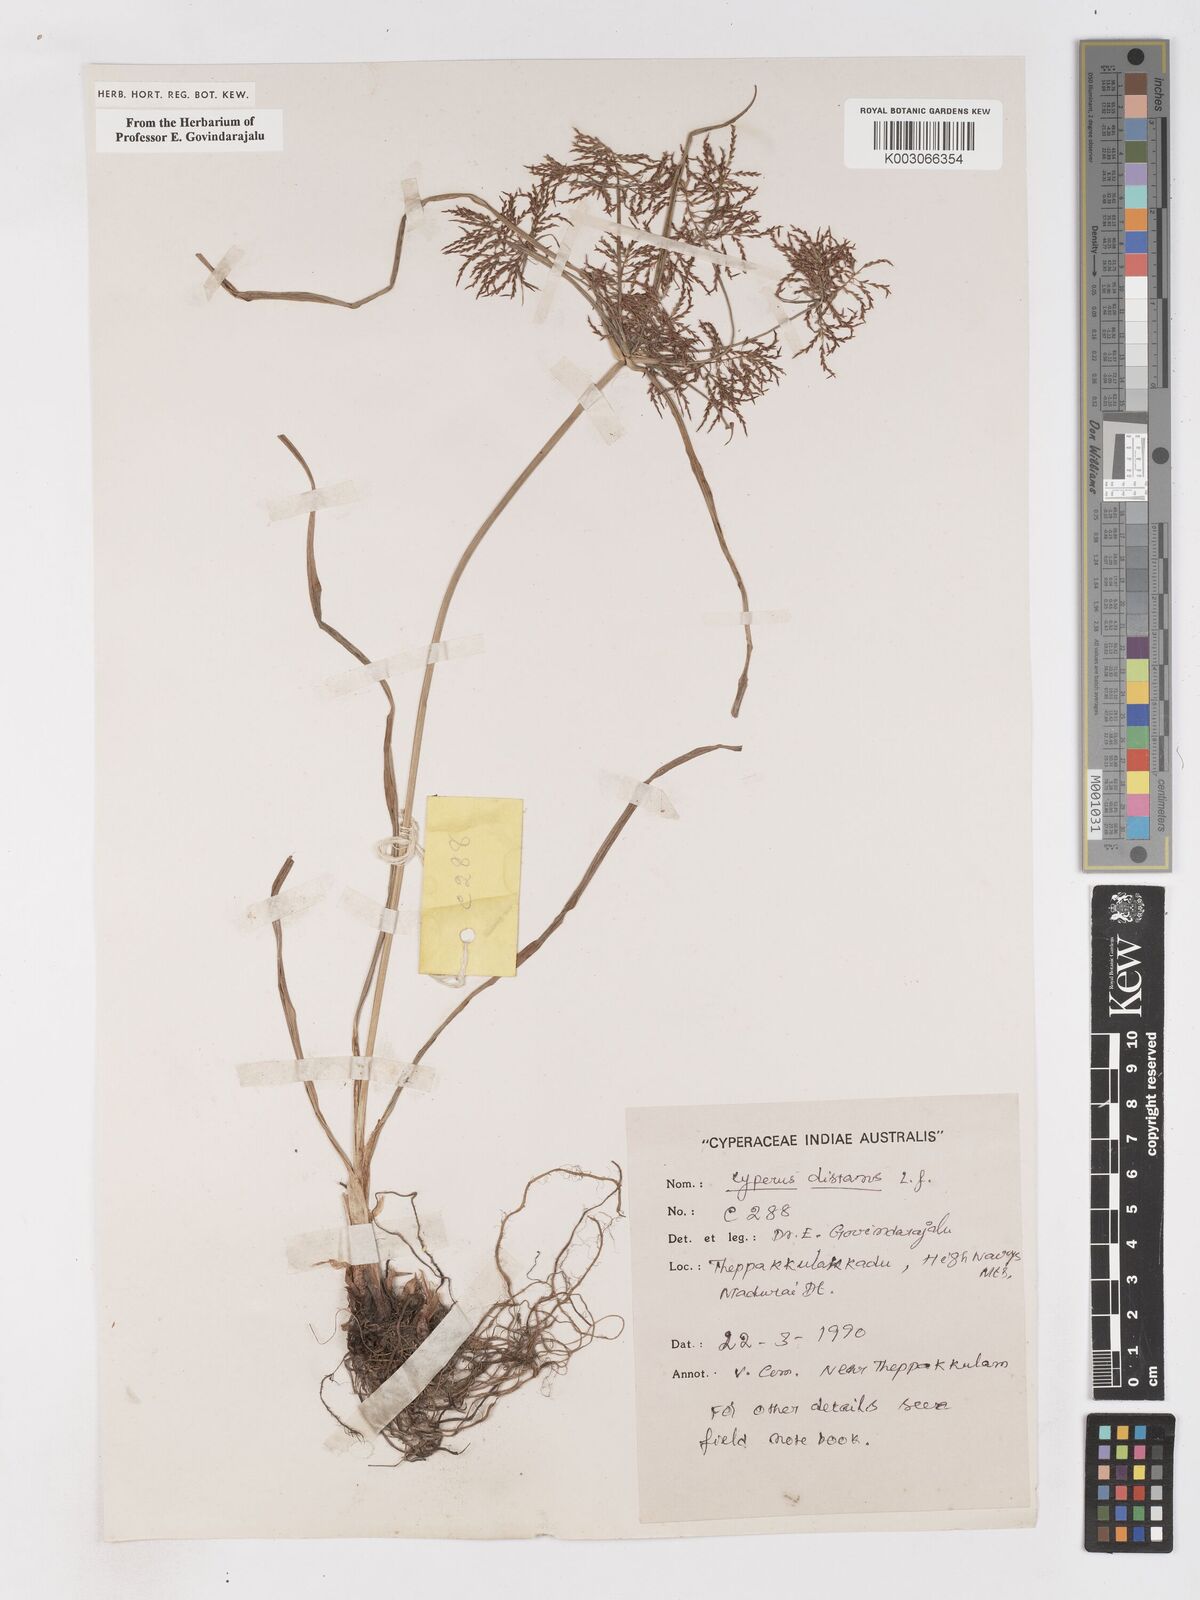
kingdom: Plantae
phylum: Tracheophyta
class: Liliopsida
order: Poales
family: Cyperaceae
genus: Cyperus
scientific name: Cyperus distans
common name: Slender cyperus
